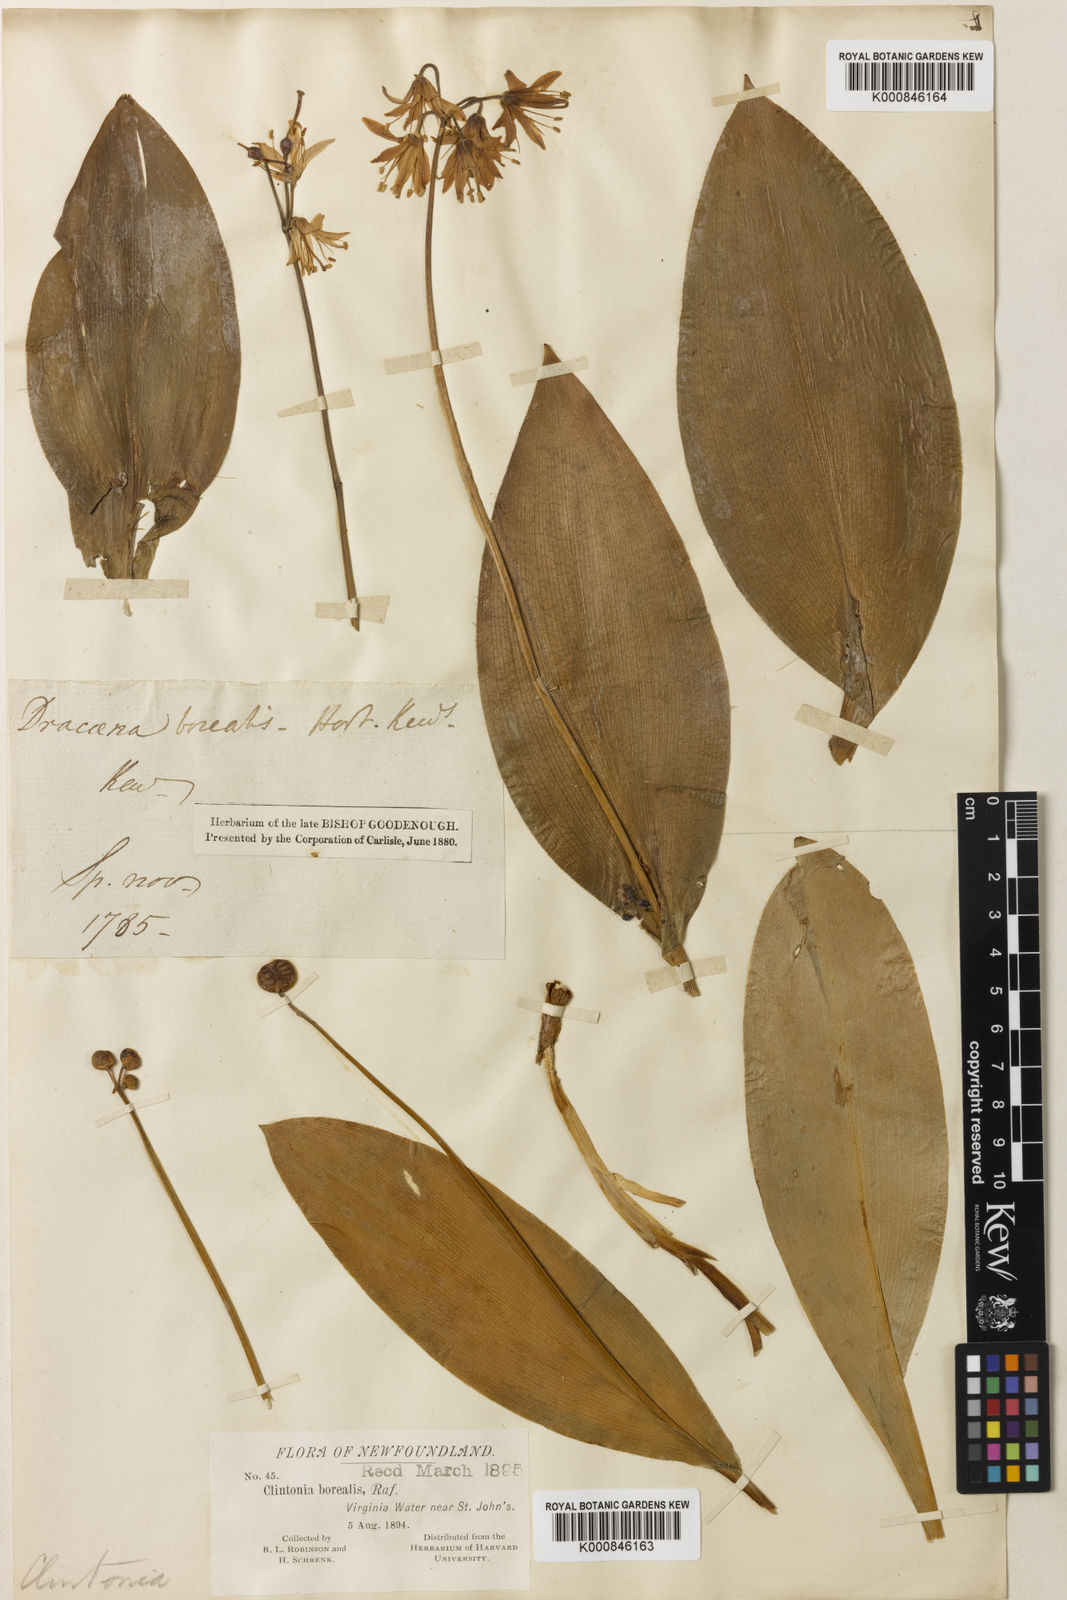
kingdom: Plantae
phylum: Tracheophyta
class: Liliopsida
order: Liliales
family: Liliaceae
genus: Clintonia
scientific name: Clintonia borealis
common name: Yellow clintonia
